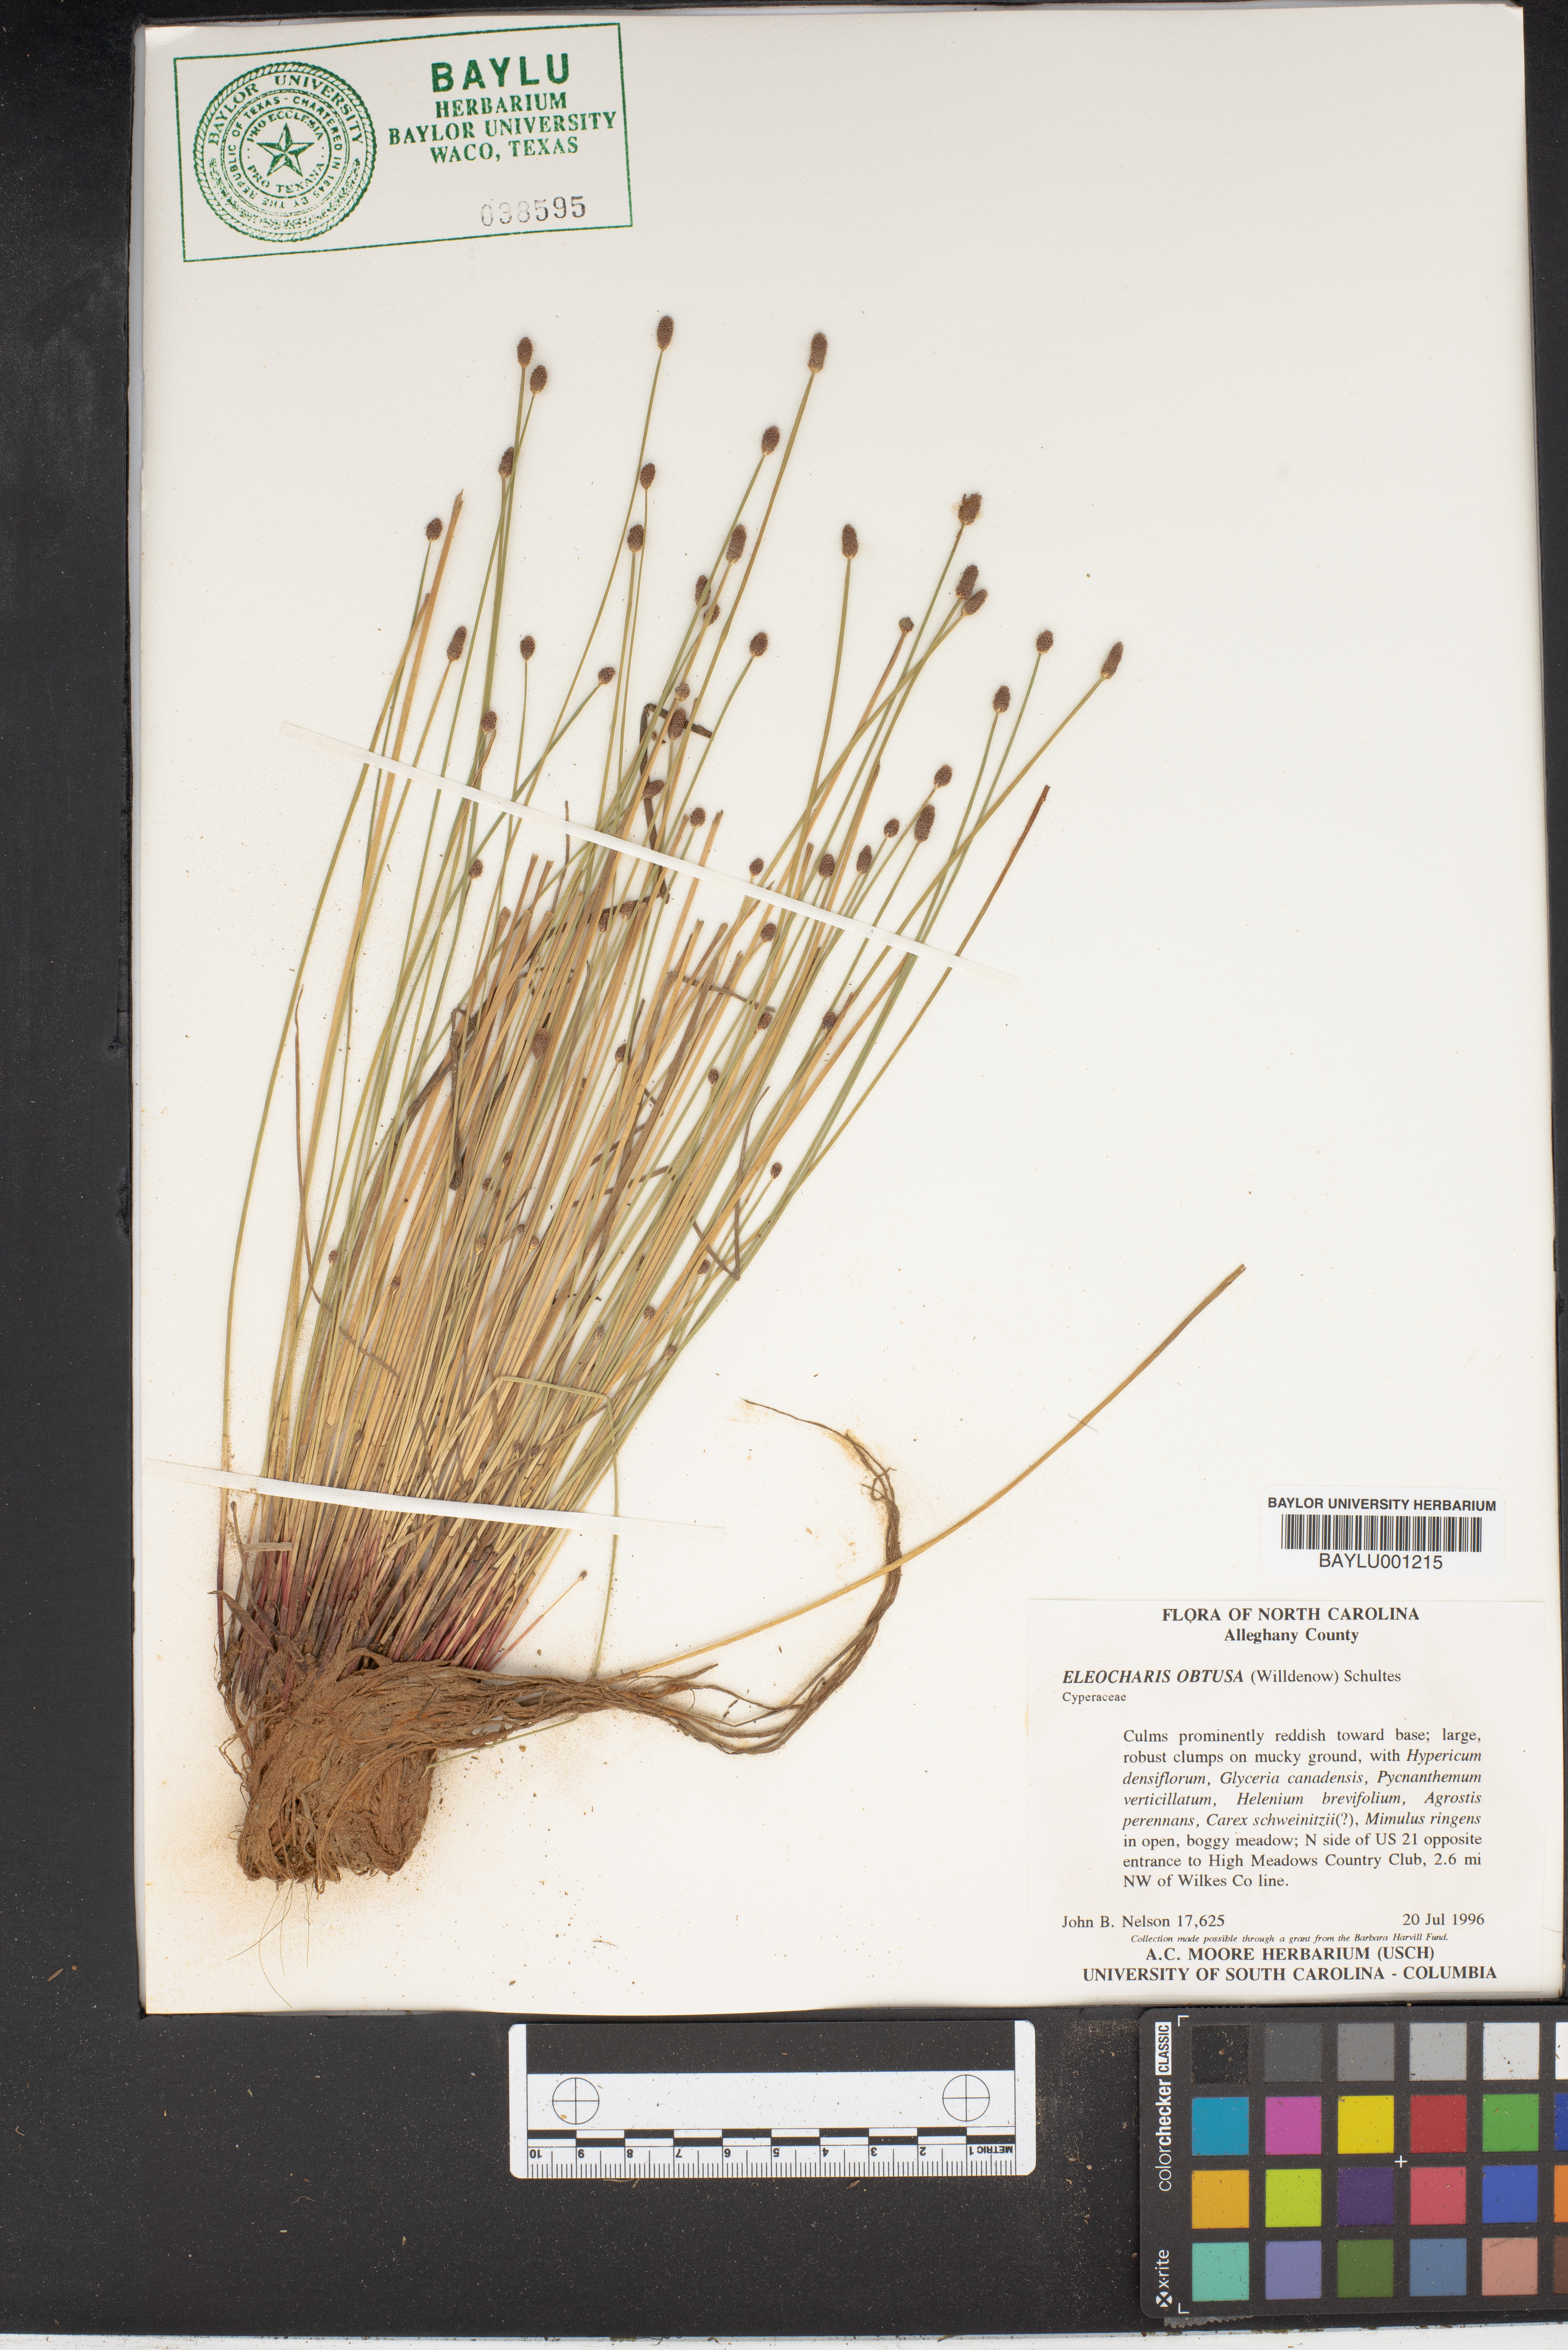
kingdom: Plantae
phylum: Tracheophyta
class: Liliopsida
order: Poales
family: Cyperaceae
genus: Eleocharis
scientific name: Eleocharis obtusa
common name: Blunt spikerush
